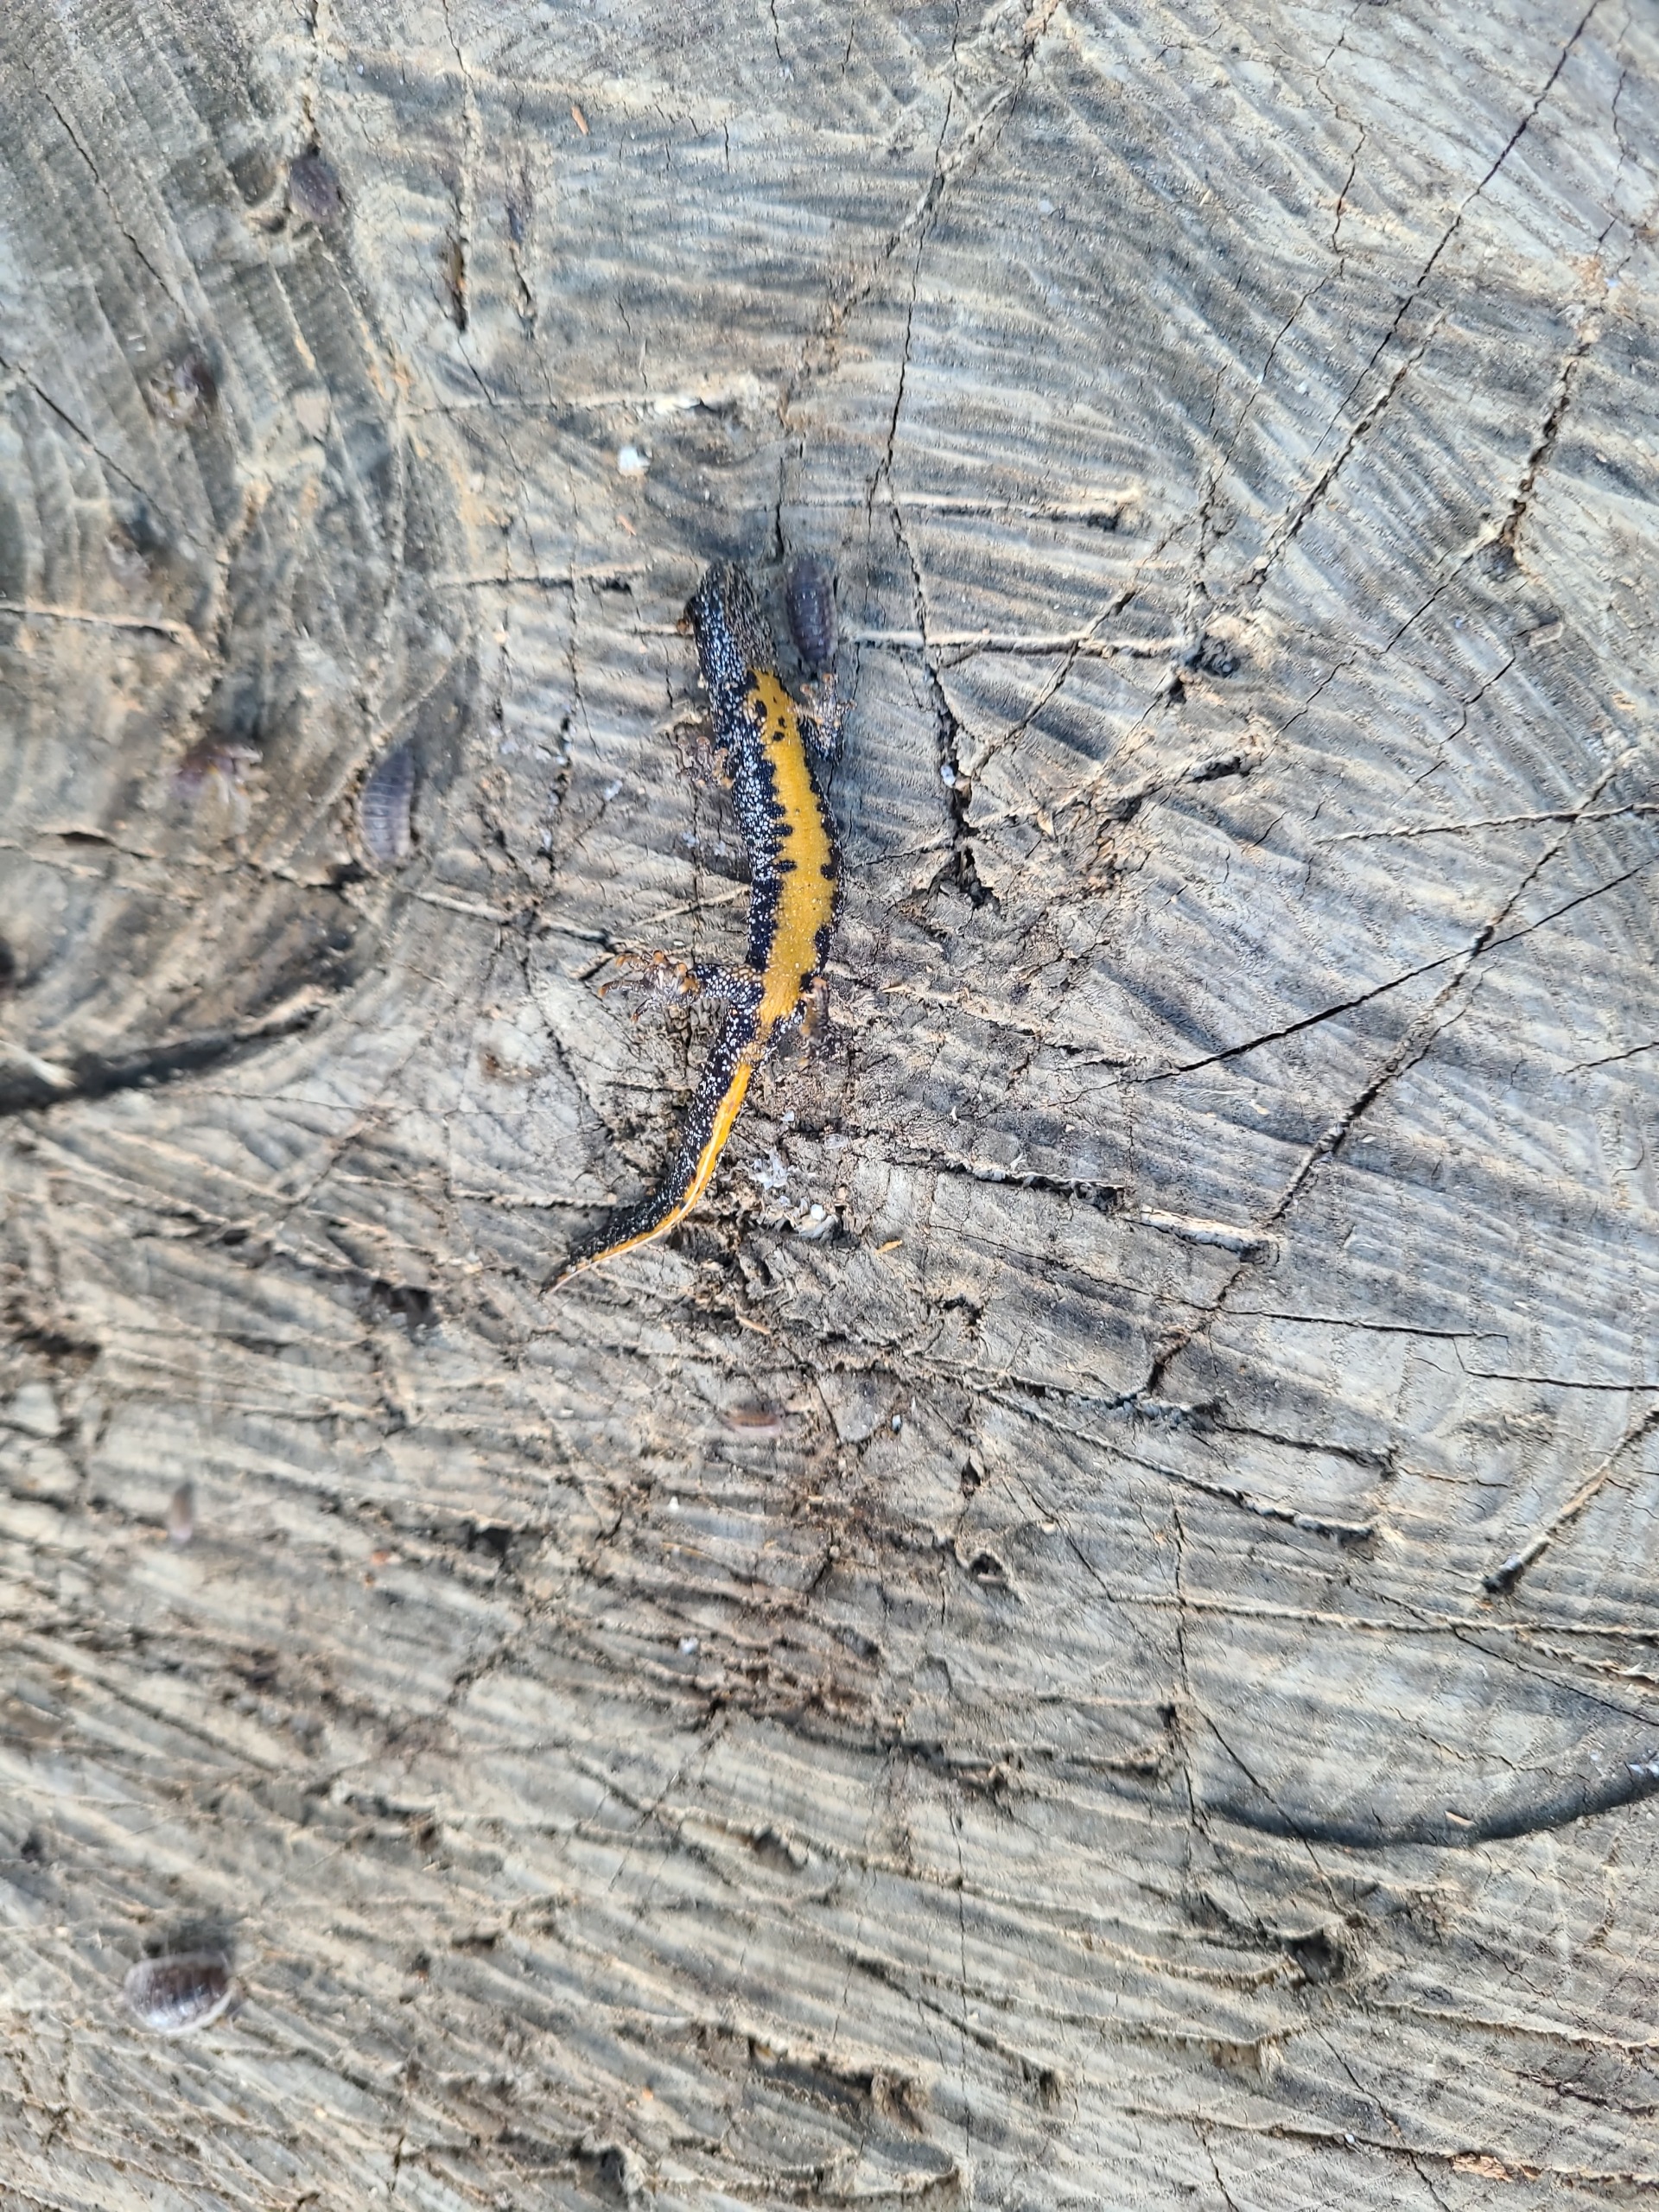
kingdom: Animalia
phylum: Chordata
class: Amphibia
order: Caudata
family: Salamandridae
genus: Triturus
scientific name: Triturus cristatus
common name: Stor vandsalamander
